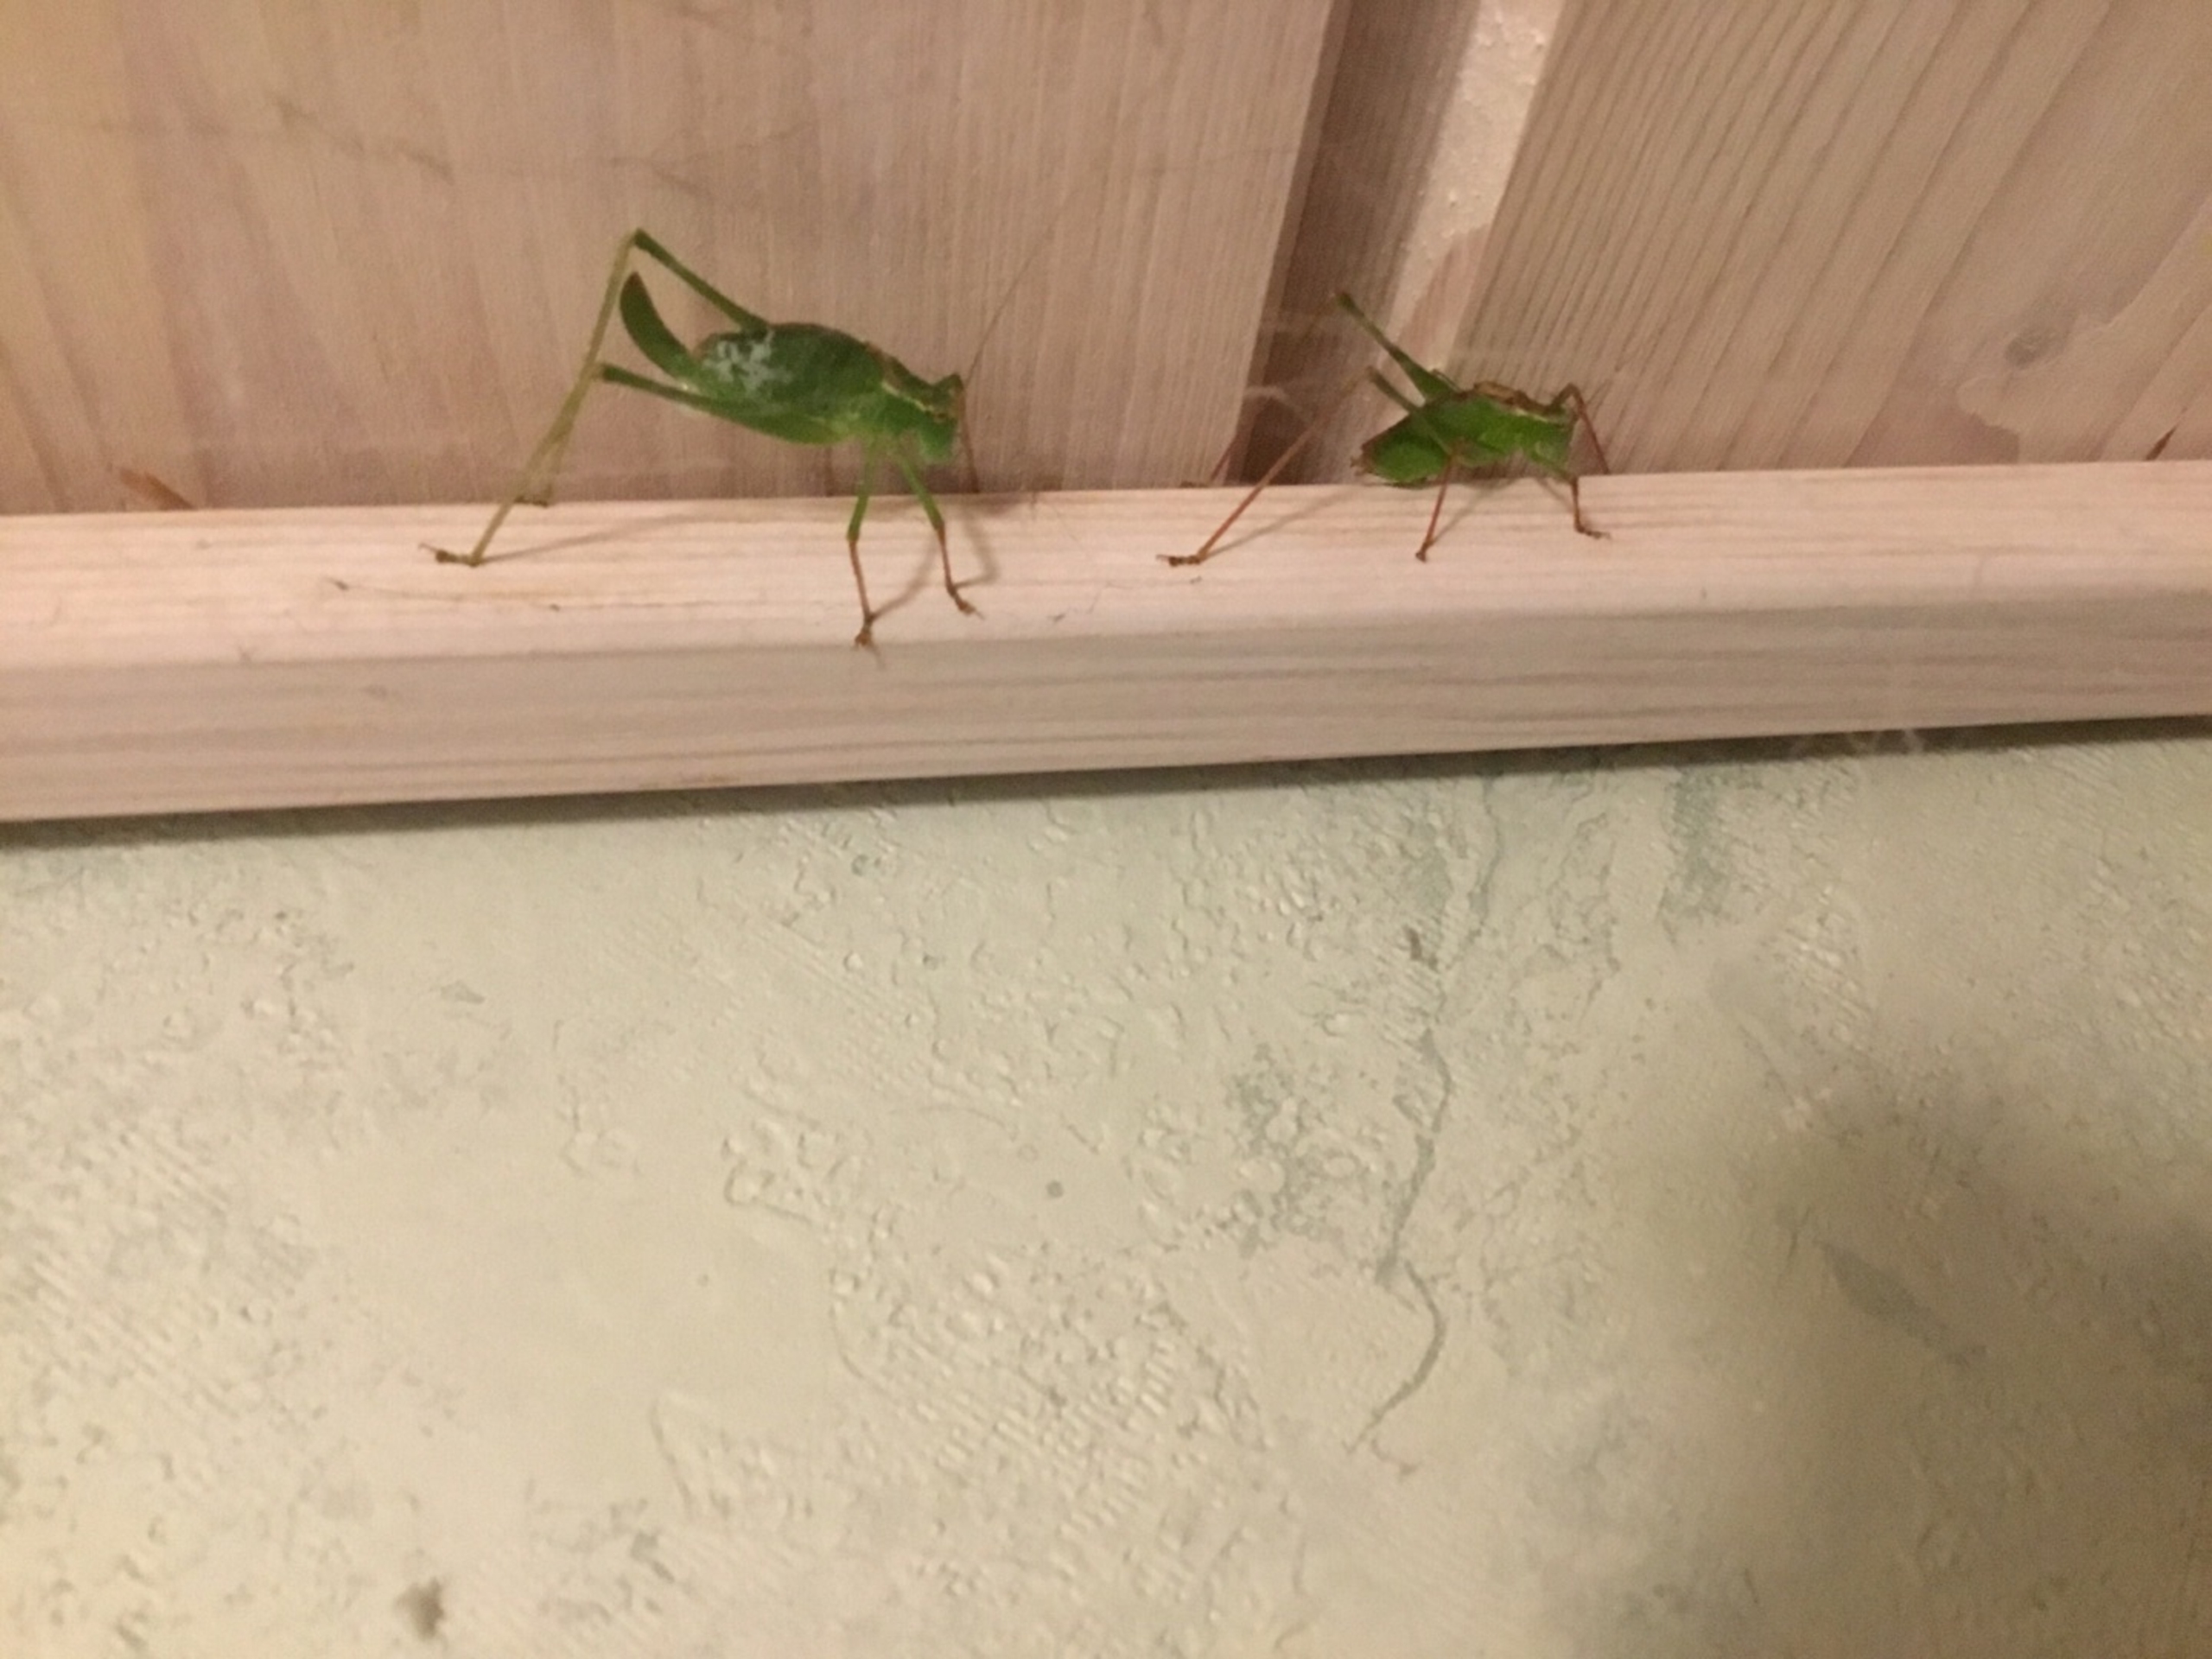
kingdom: Animalia
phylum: Arthropoda
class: Insecta
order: Orthoptera
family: Tettigoniidae
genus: Leptophyes
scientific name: Leptophyes punctatissima
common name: Krumknivgræshoppe
